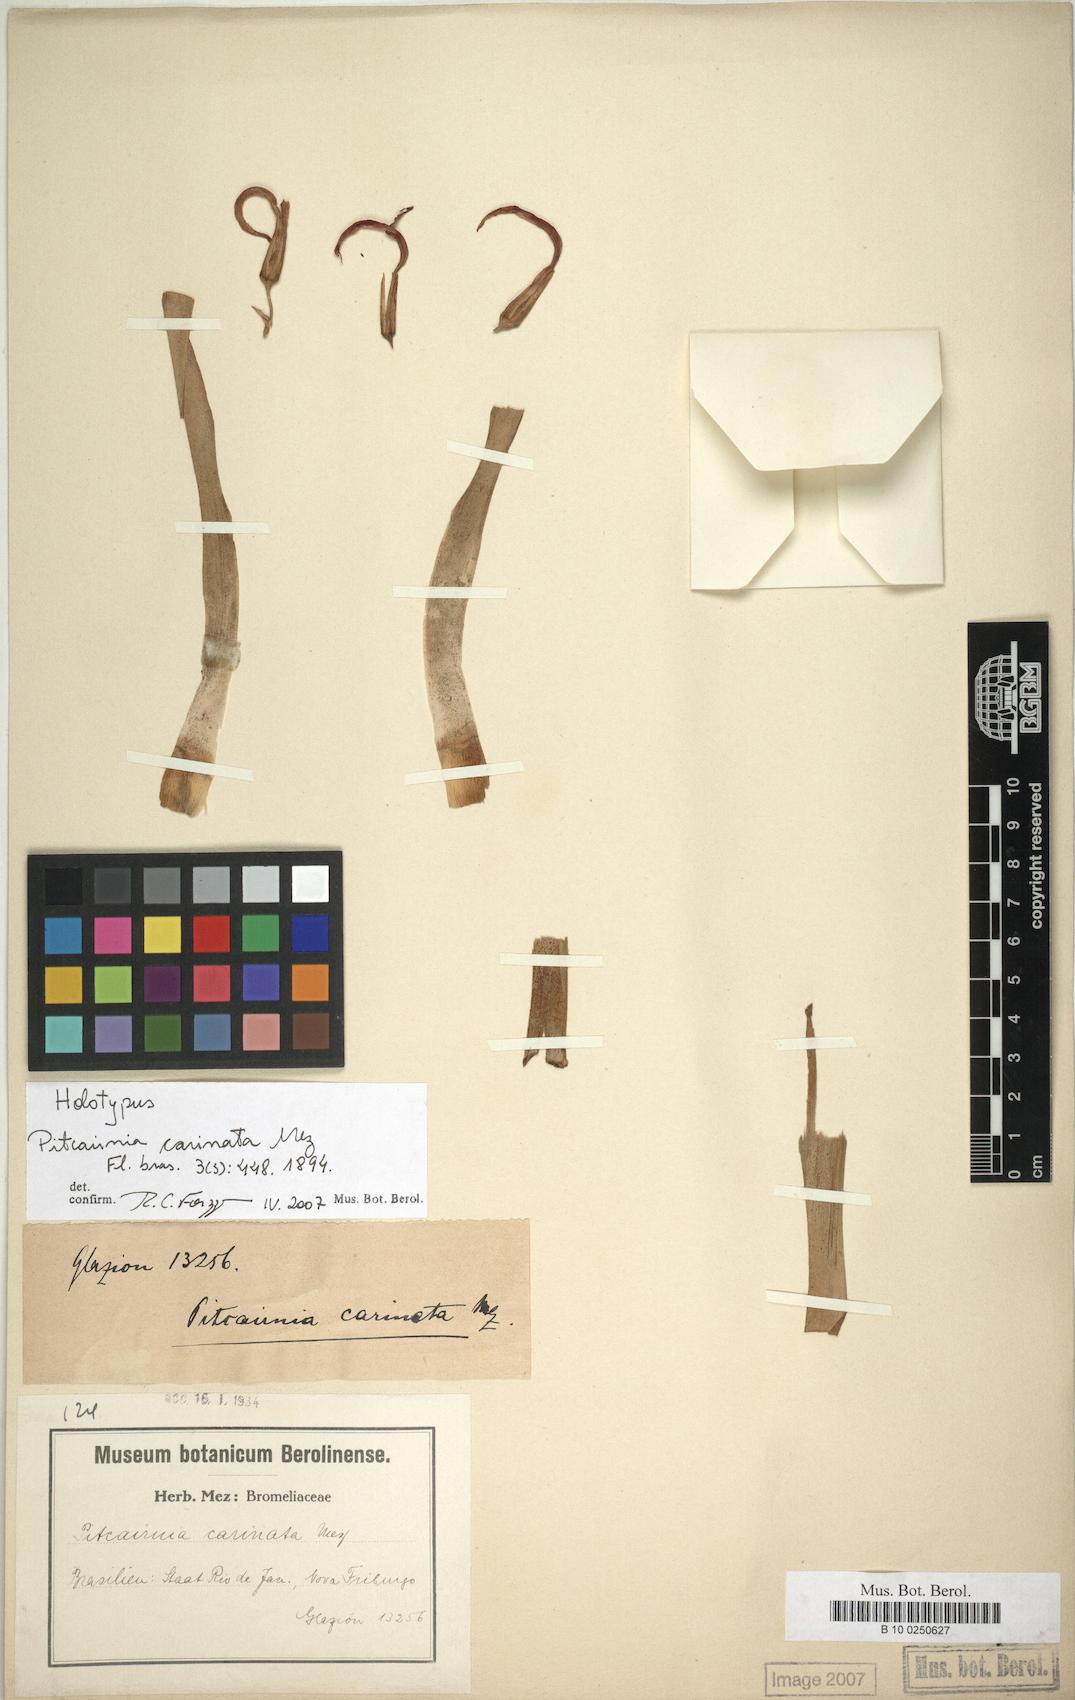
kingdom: Plantae
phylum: Tracheophyta
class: Liliopsida
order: Poales
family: Bromeliaceae
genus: Pitcairnia
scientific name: Pitcairnia carinata
